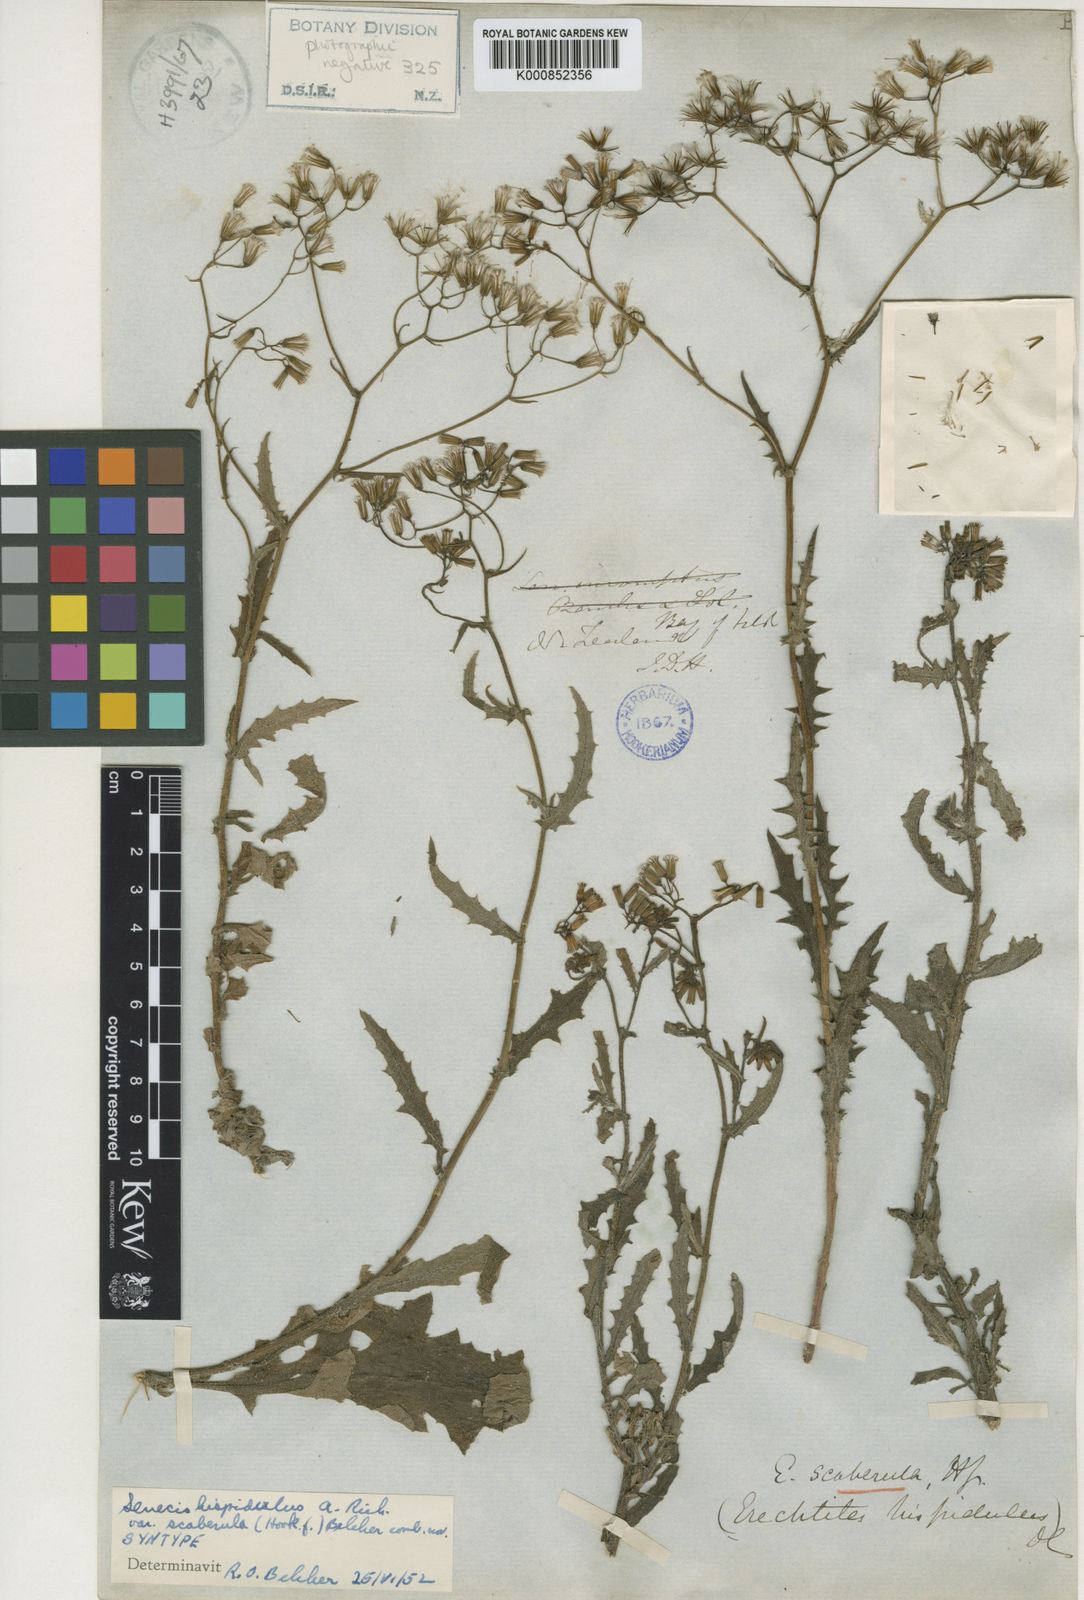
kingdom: Plantae
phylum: Tracheophyta
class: Magnoliopsida
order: Asterales
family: Asteraceae
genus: Senecio
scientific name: Senecio hispidulus
